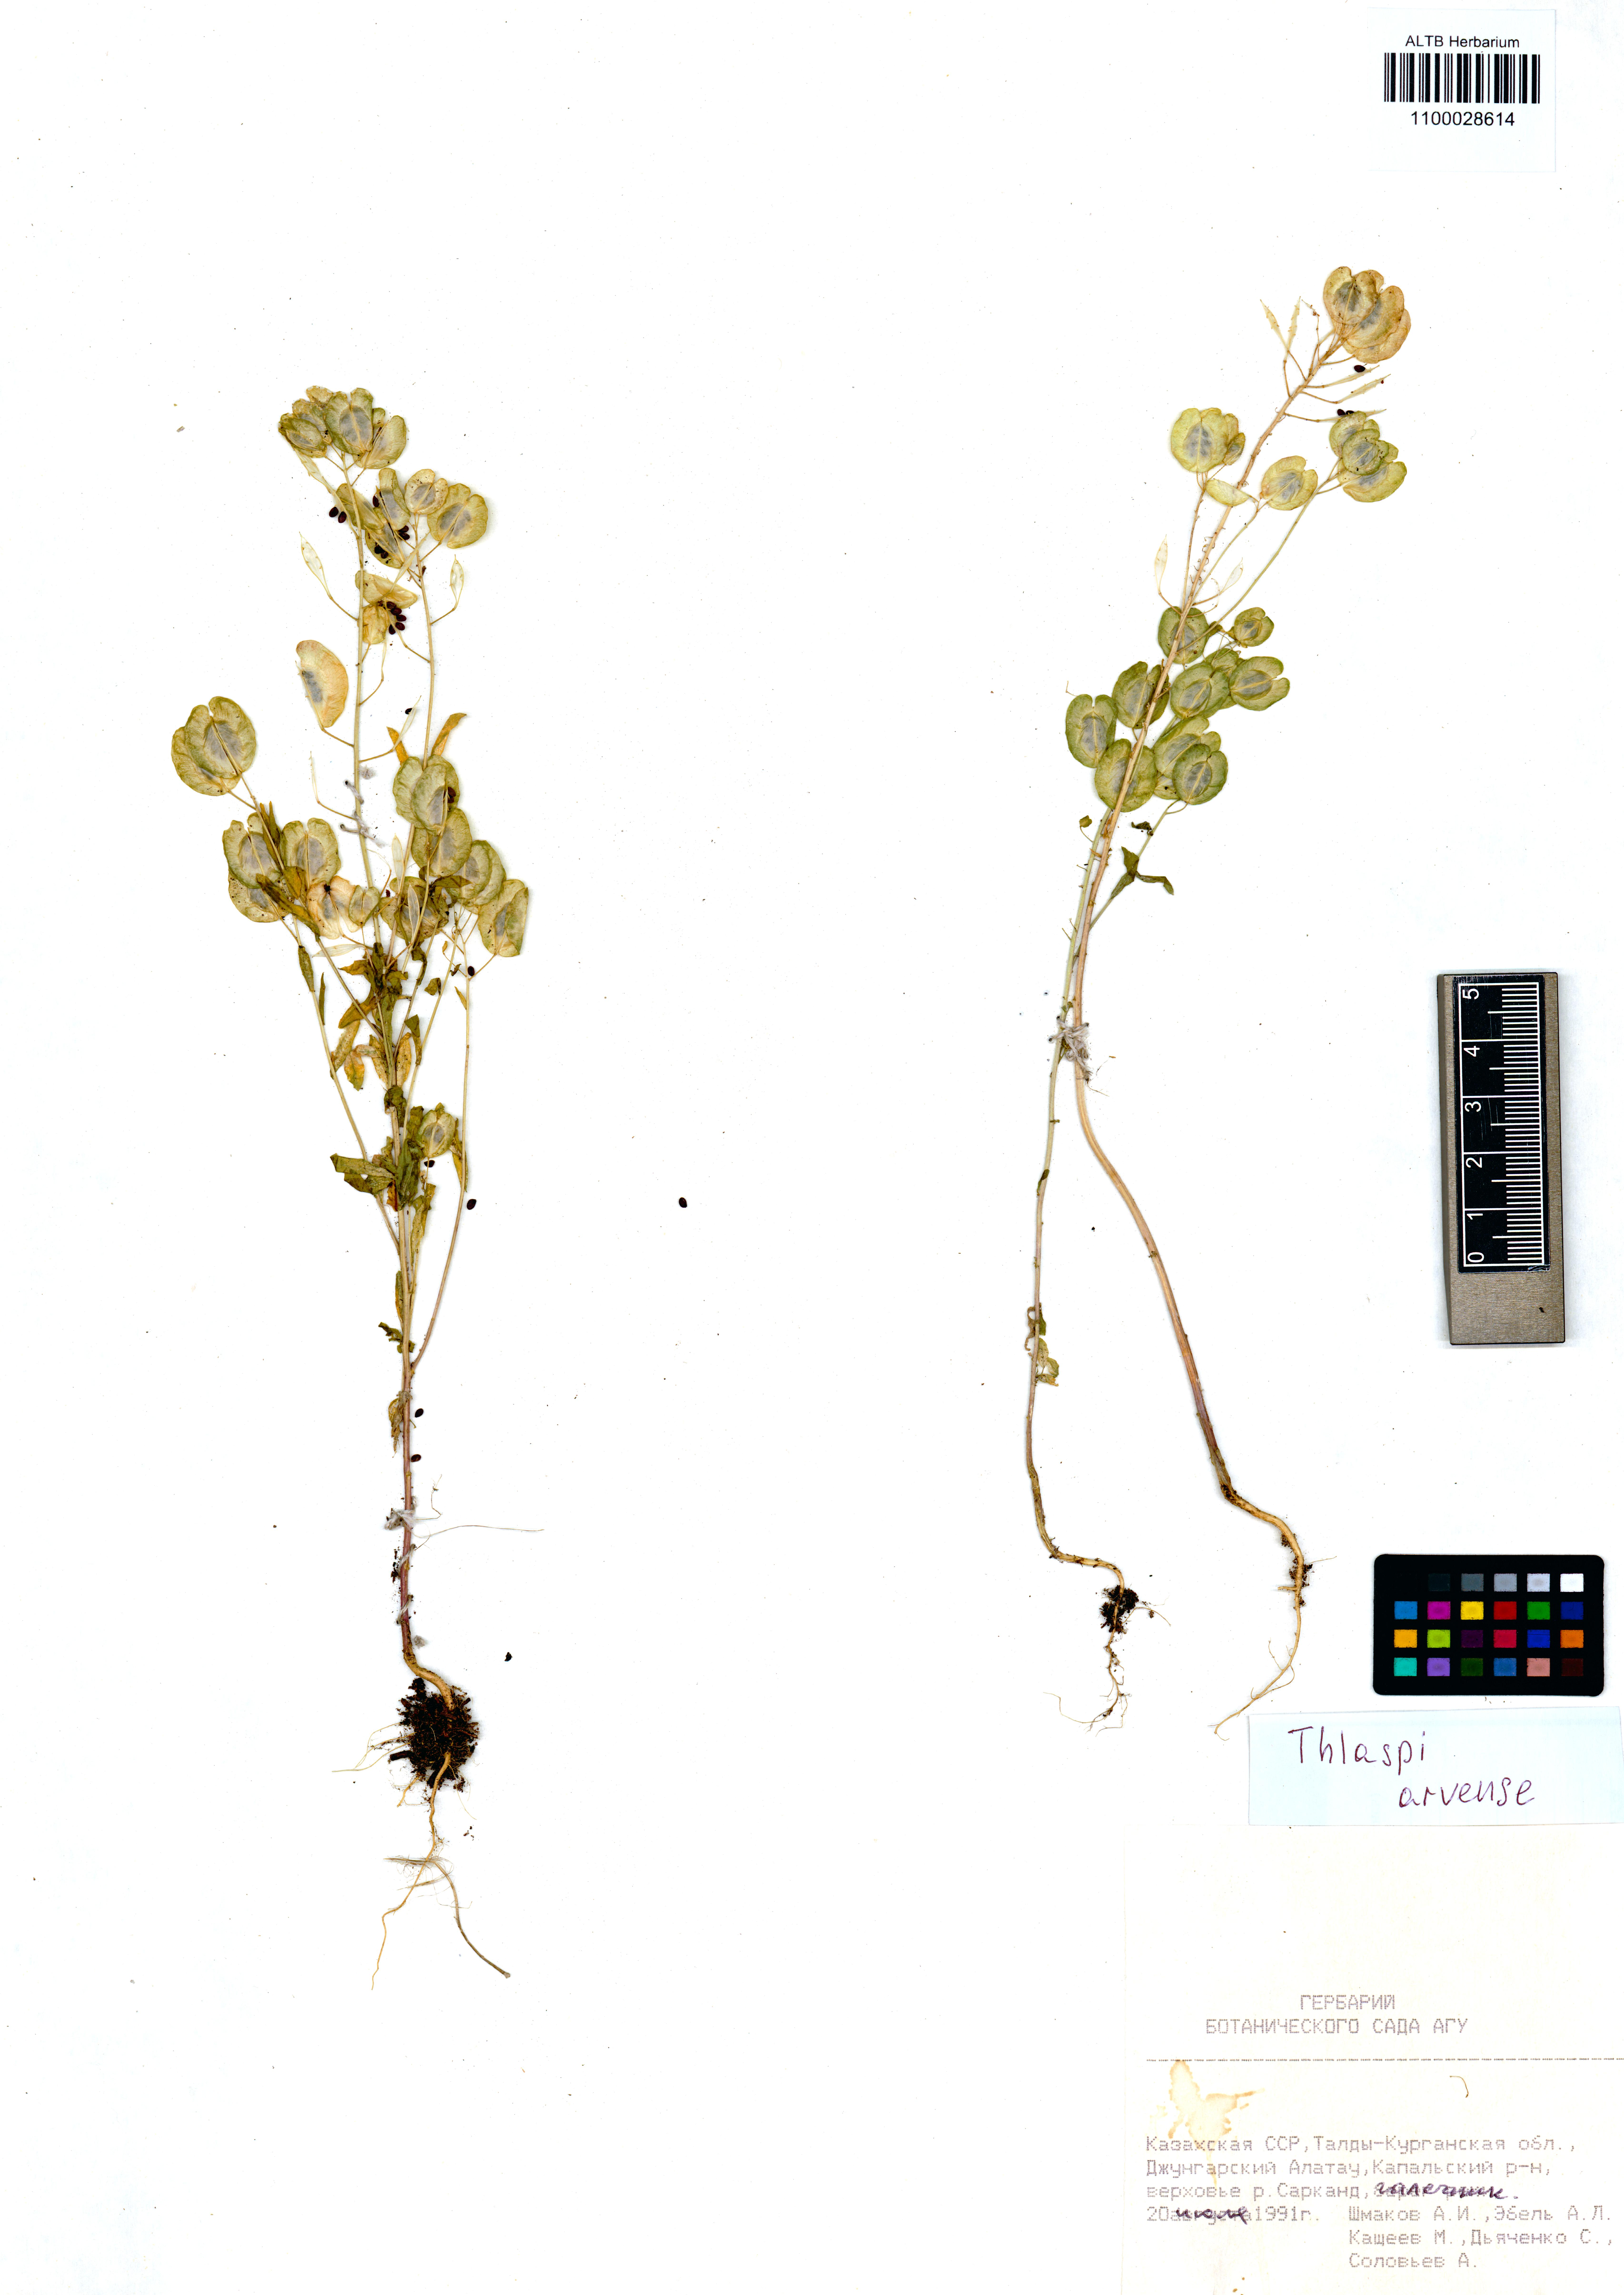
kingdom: Plantae
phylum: Tracheophyta
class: Magnoliopsida
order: Brassicales
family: Brassicaceae
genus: Thlaspi
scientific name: Thlaspi arvense
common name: Field pennycress
